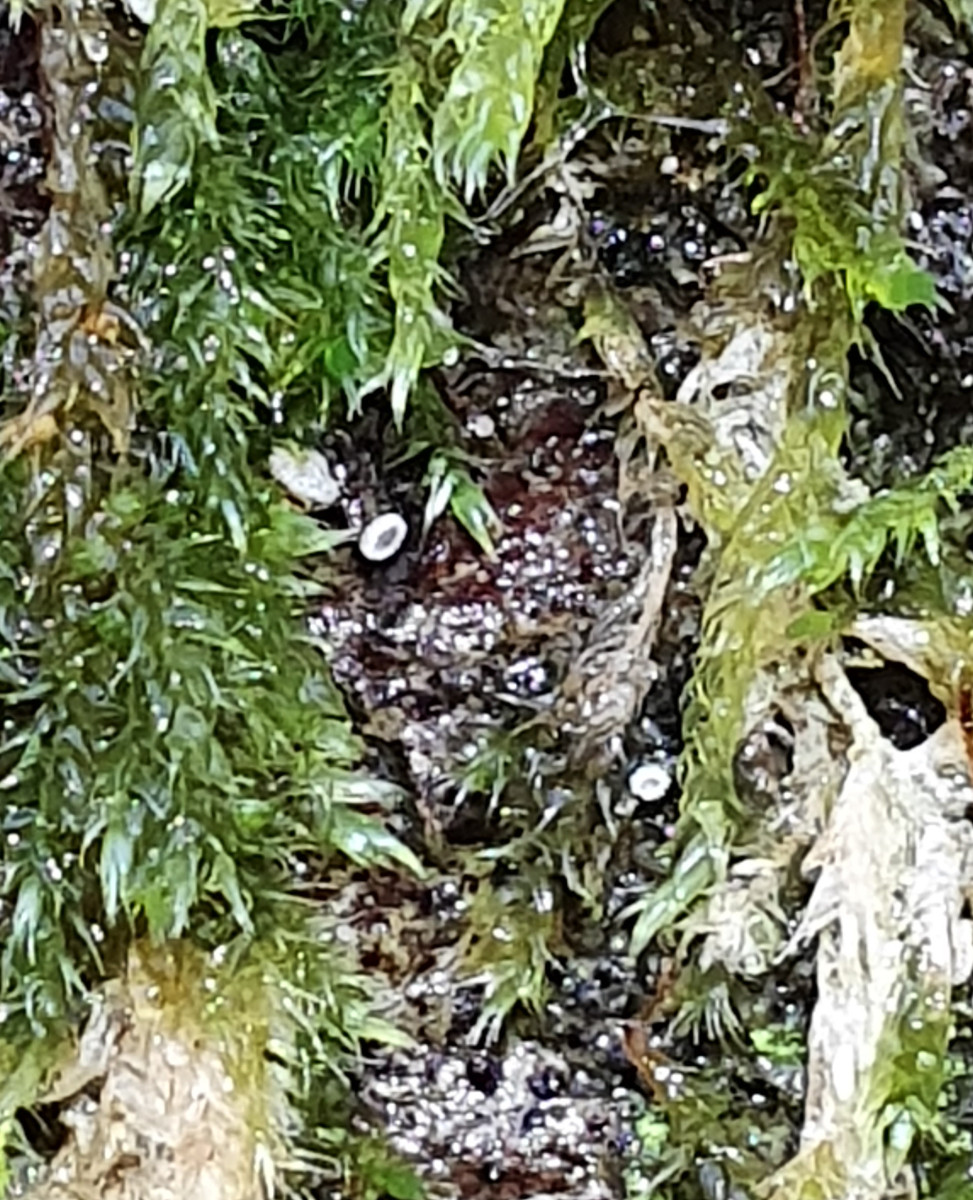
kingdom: Fungi
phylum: Basidiomycota
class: Agaricomycetes
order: Agaricales
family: Chromocyphellaceae
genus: Chromocyphella
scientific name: Chromocyphella muscicola
